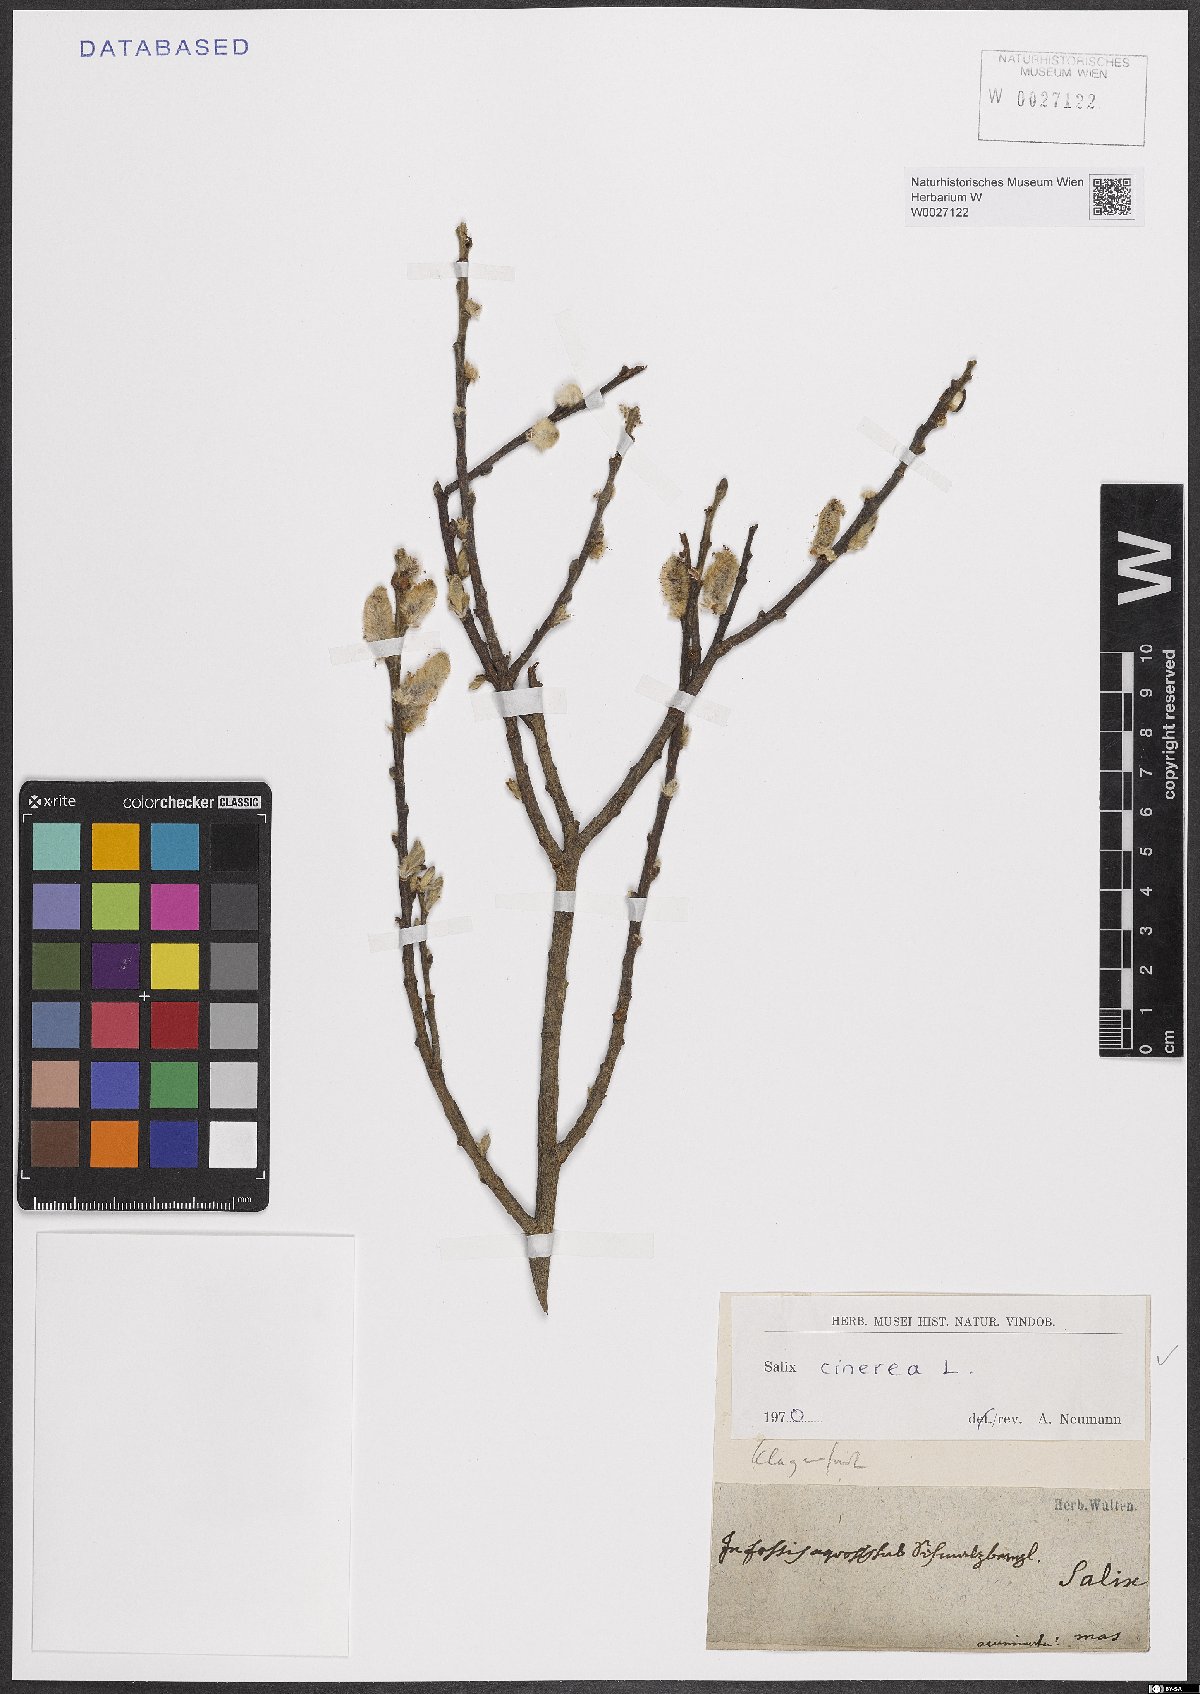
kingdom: Plantae
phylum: Tracheophyta
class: Magnoliopsida
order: Malpighiales
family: Salicaceae
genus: Salix
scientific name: Salix cinerea
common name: Common sallow
